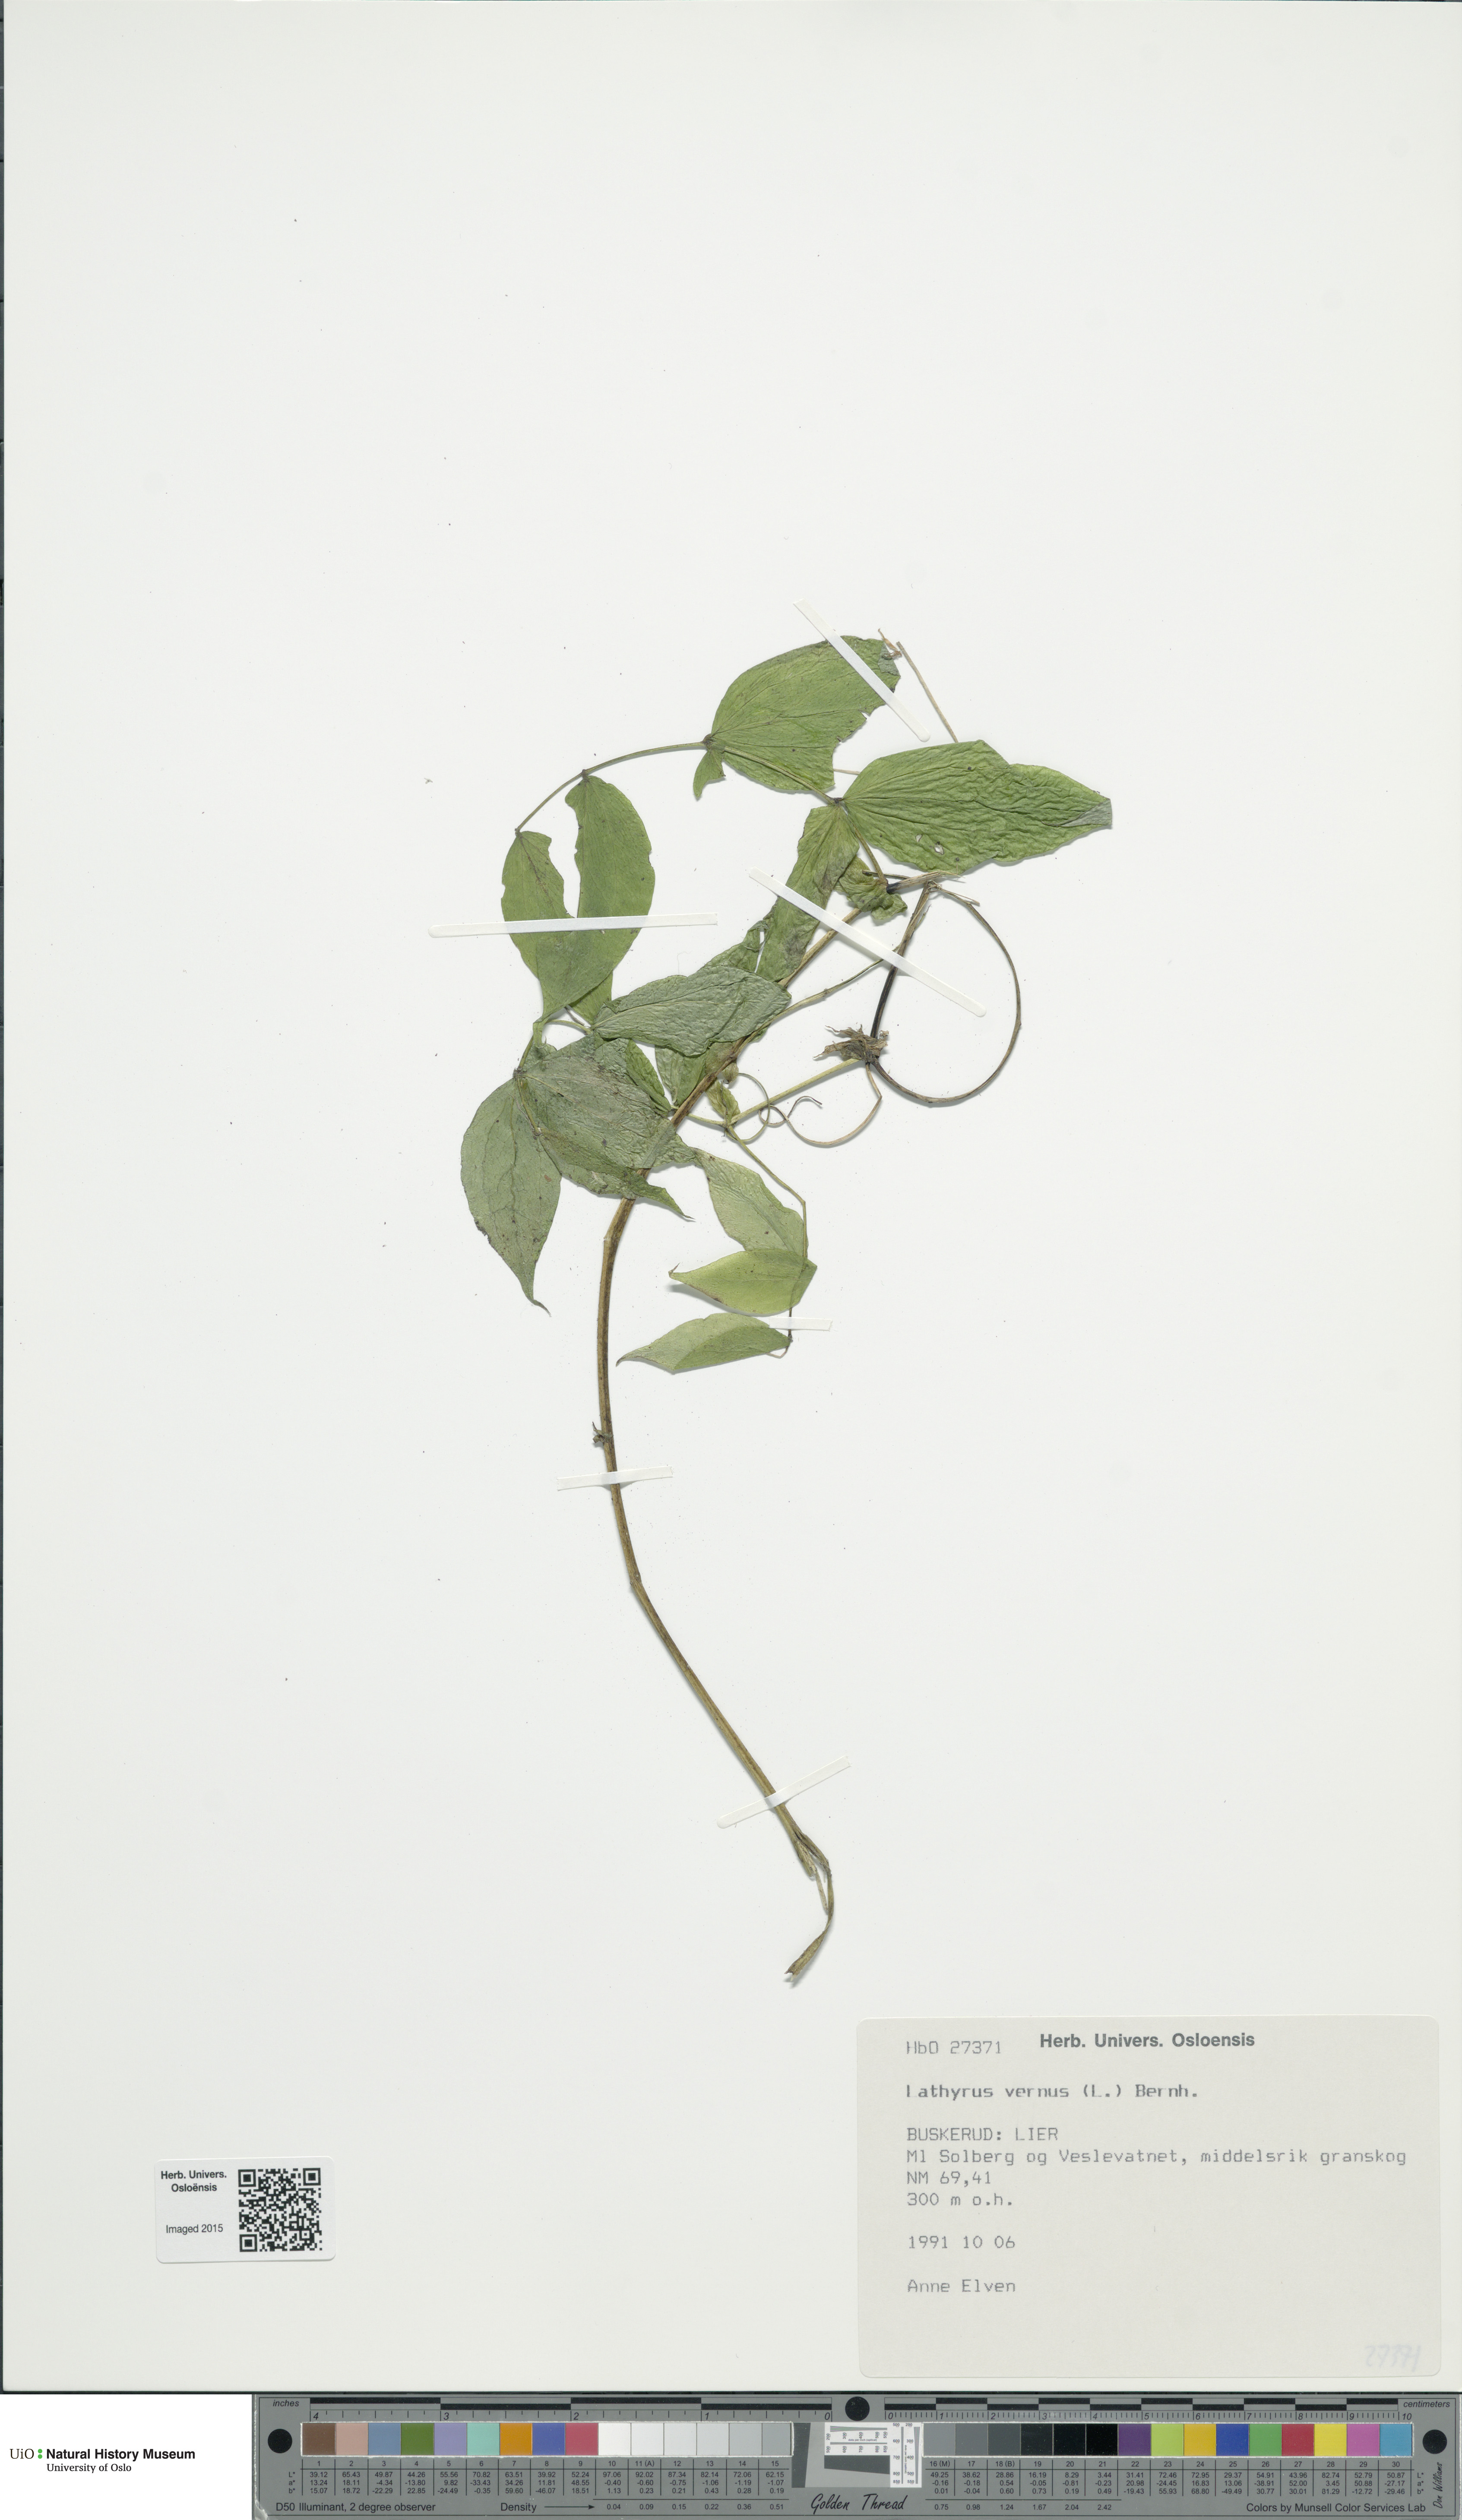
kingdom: Plantae
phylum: Tracheophyta
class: Magnoliopsida
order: Fabales
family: Fabaceae
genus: Lathyrus
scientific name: Lathyrus vernus
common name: Spring pea
